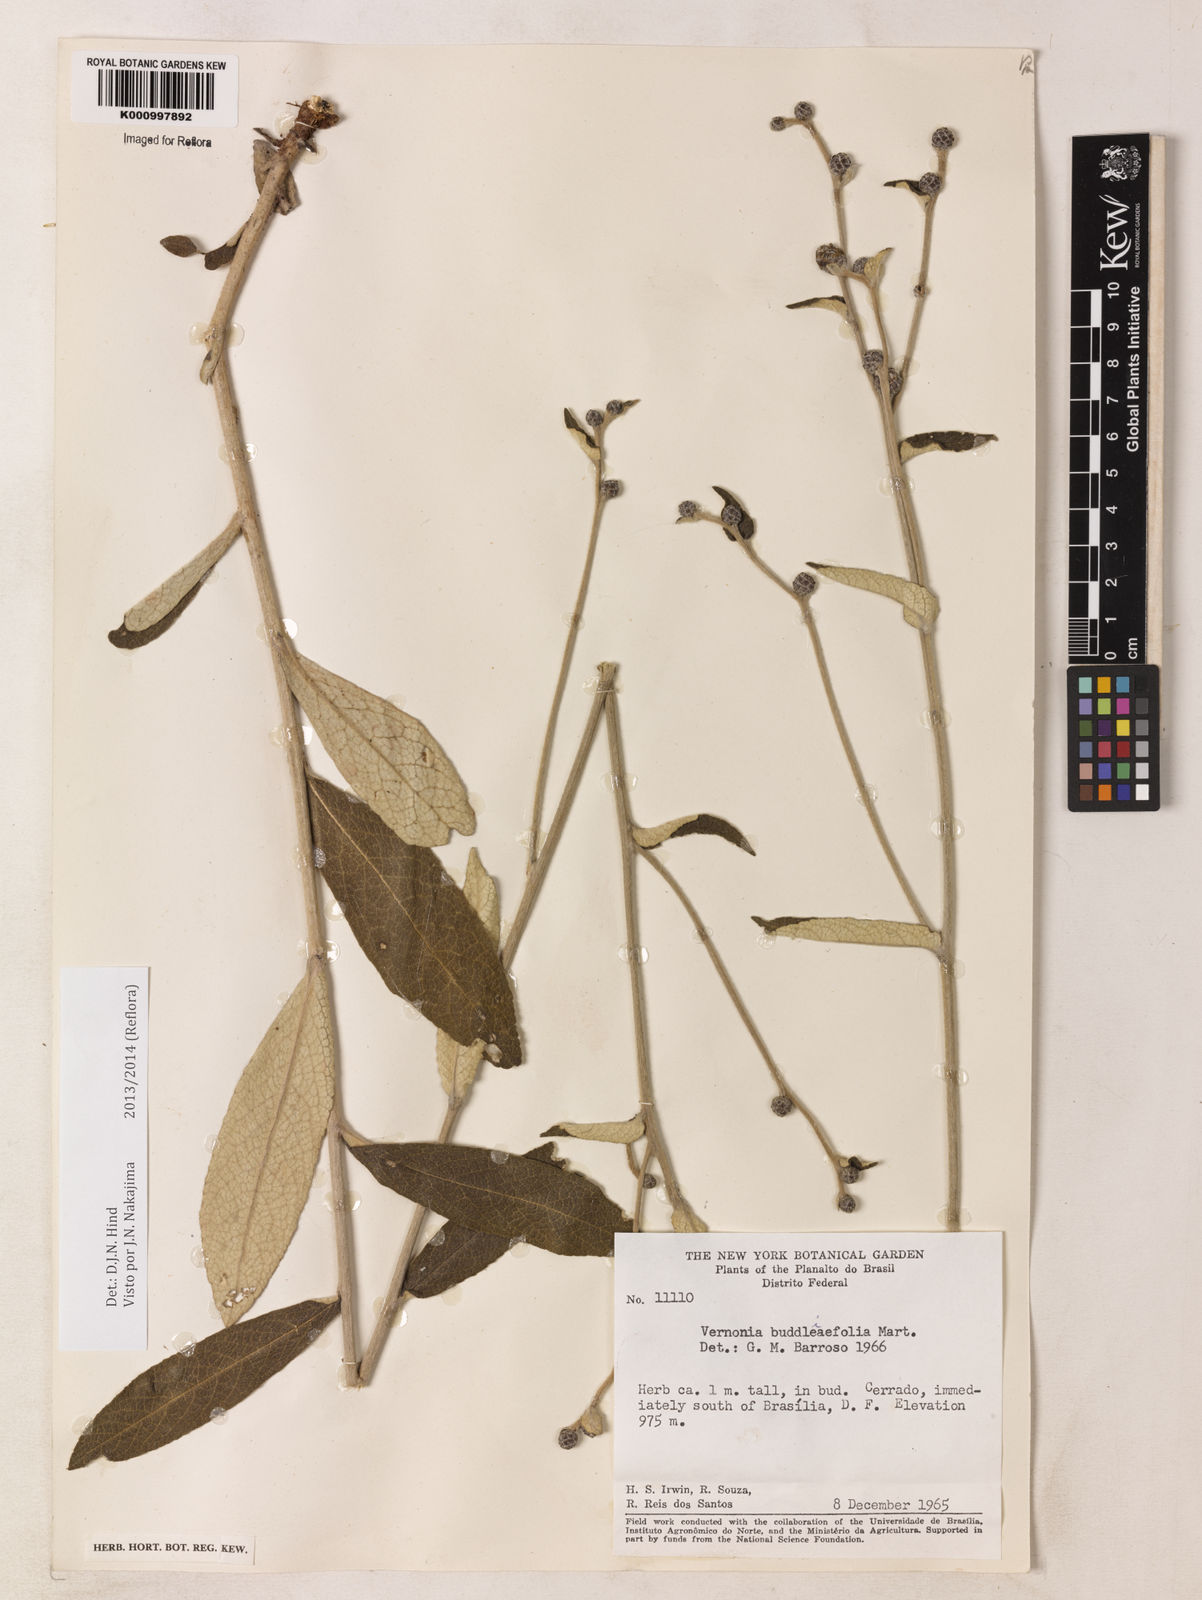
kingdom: Plantae
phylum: Tracheophyta
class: Magnoliopsida
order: Asterales
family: Asteraceae
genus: Lessingianthus
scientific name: Lessingianthus buddlejifolius
